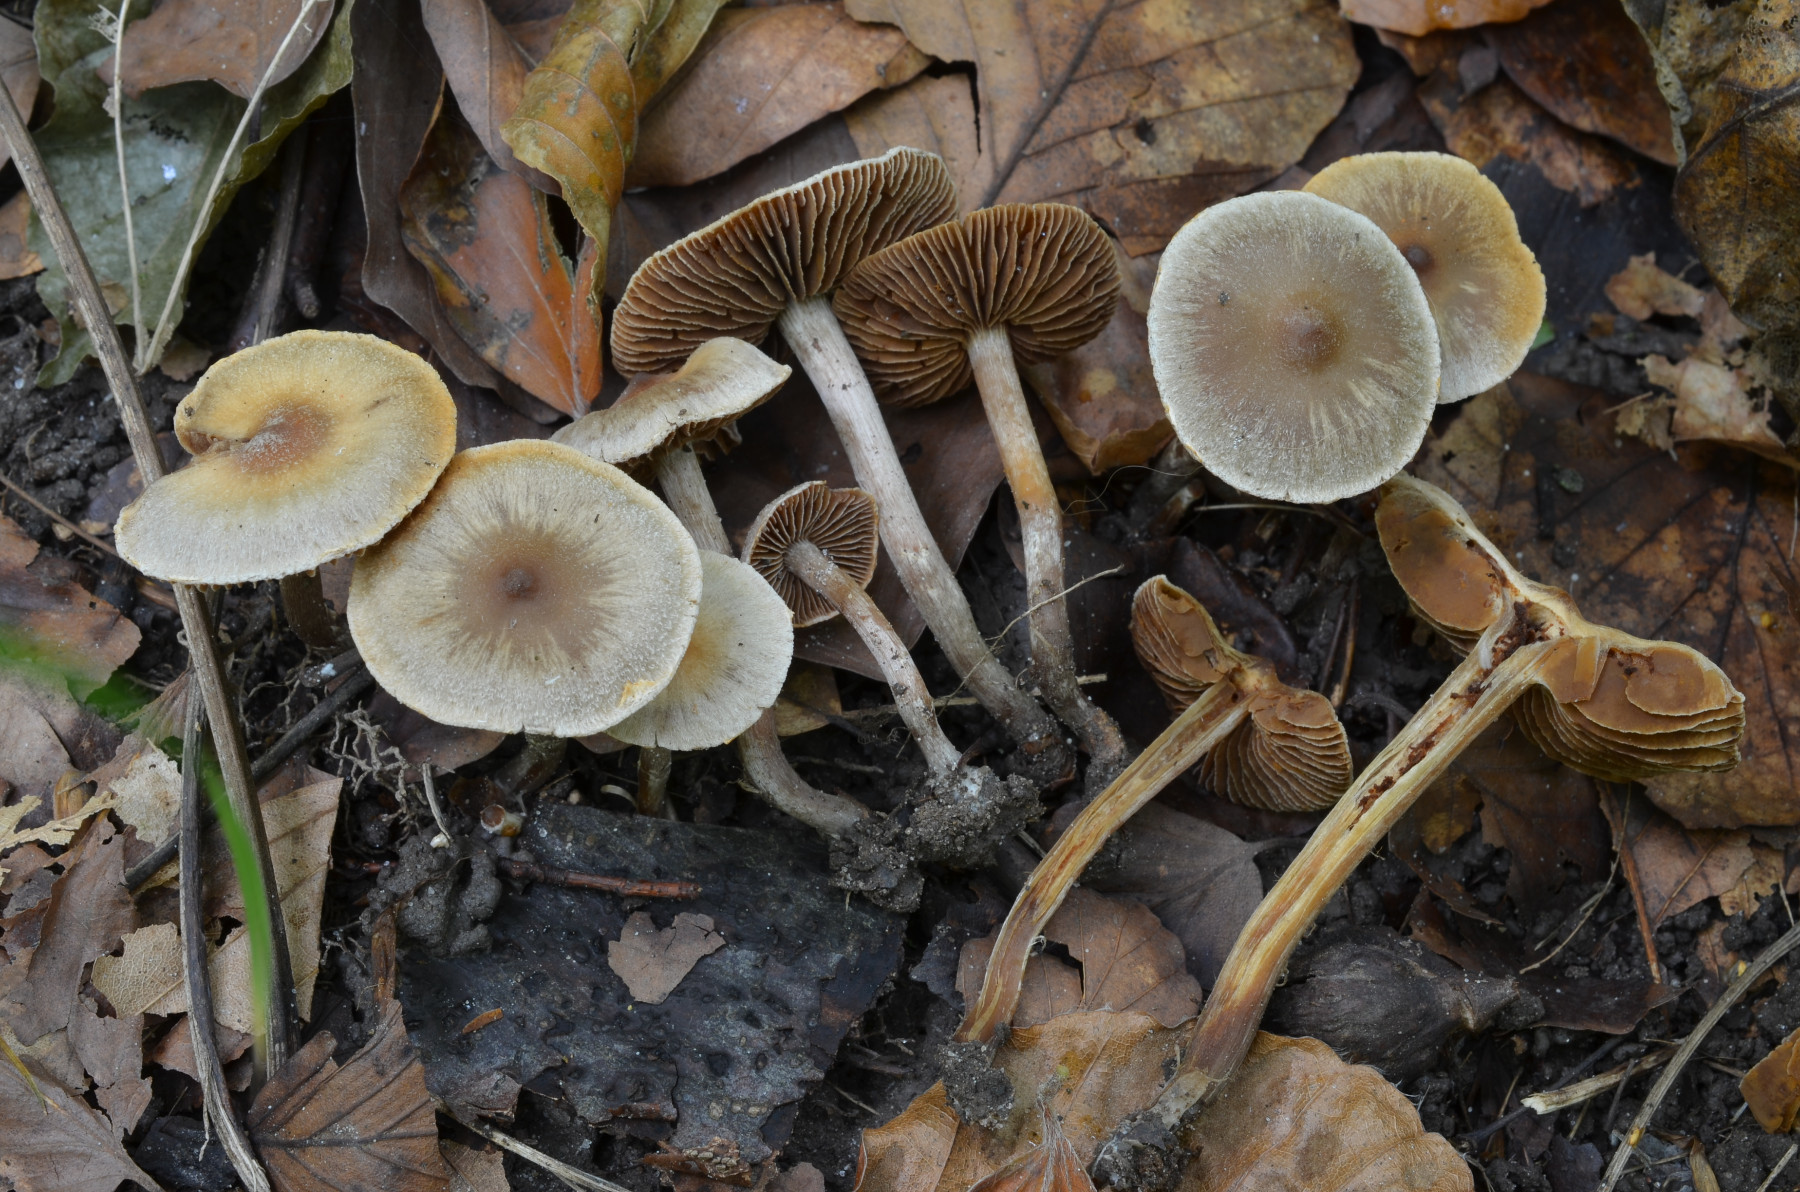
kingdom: Fungi
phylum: Basidiomycota
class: Agaricomycetes
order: Agaricales
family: Cortinariaceae
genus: Cortinarius
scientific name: Cortinarius geraniolens
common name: geranium-slørhat
